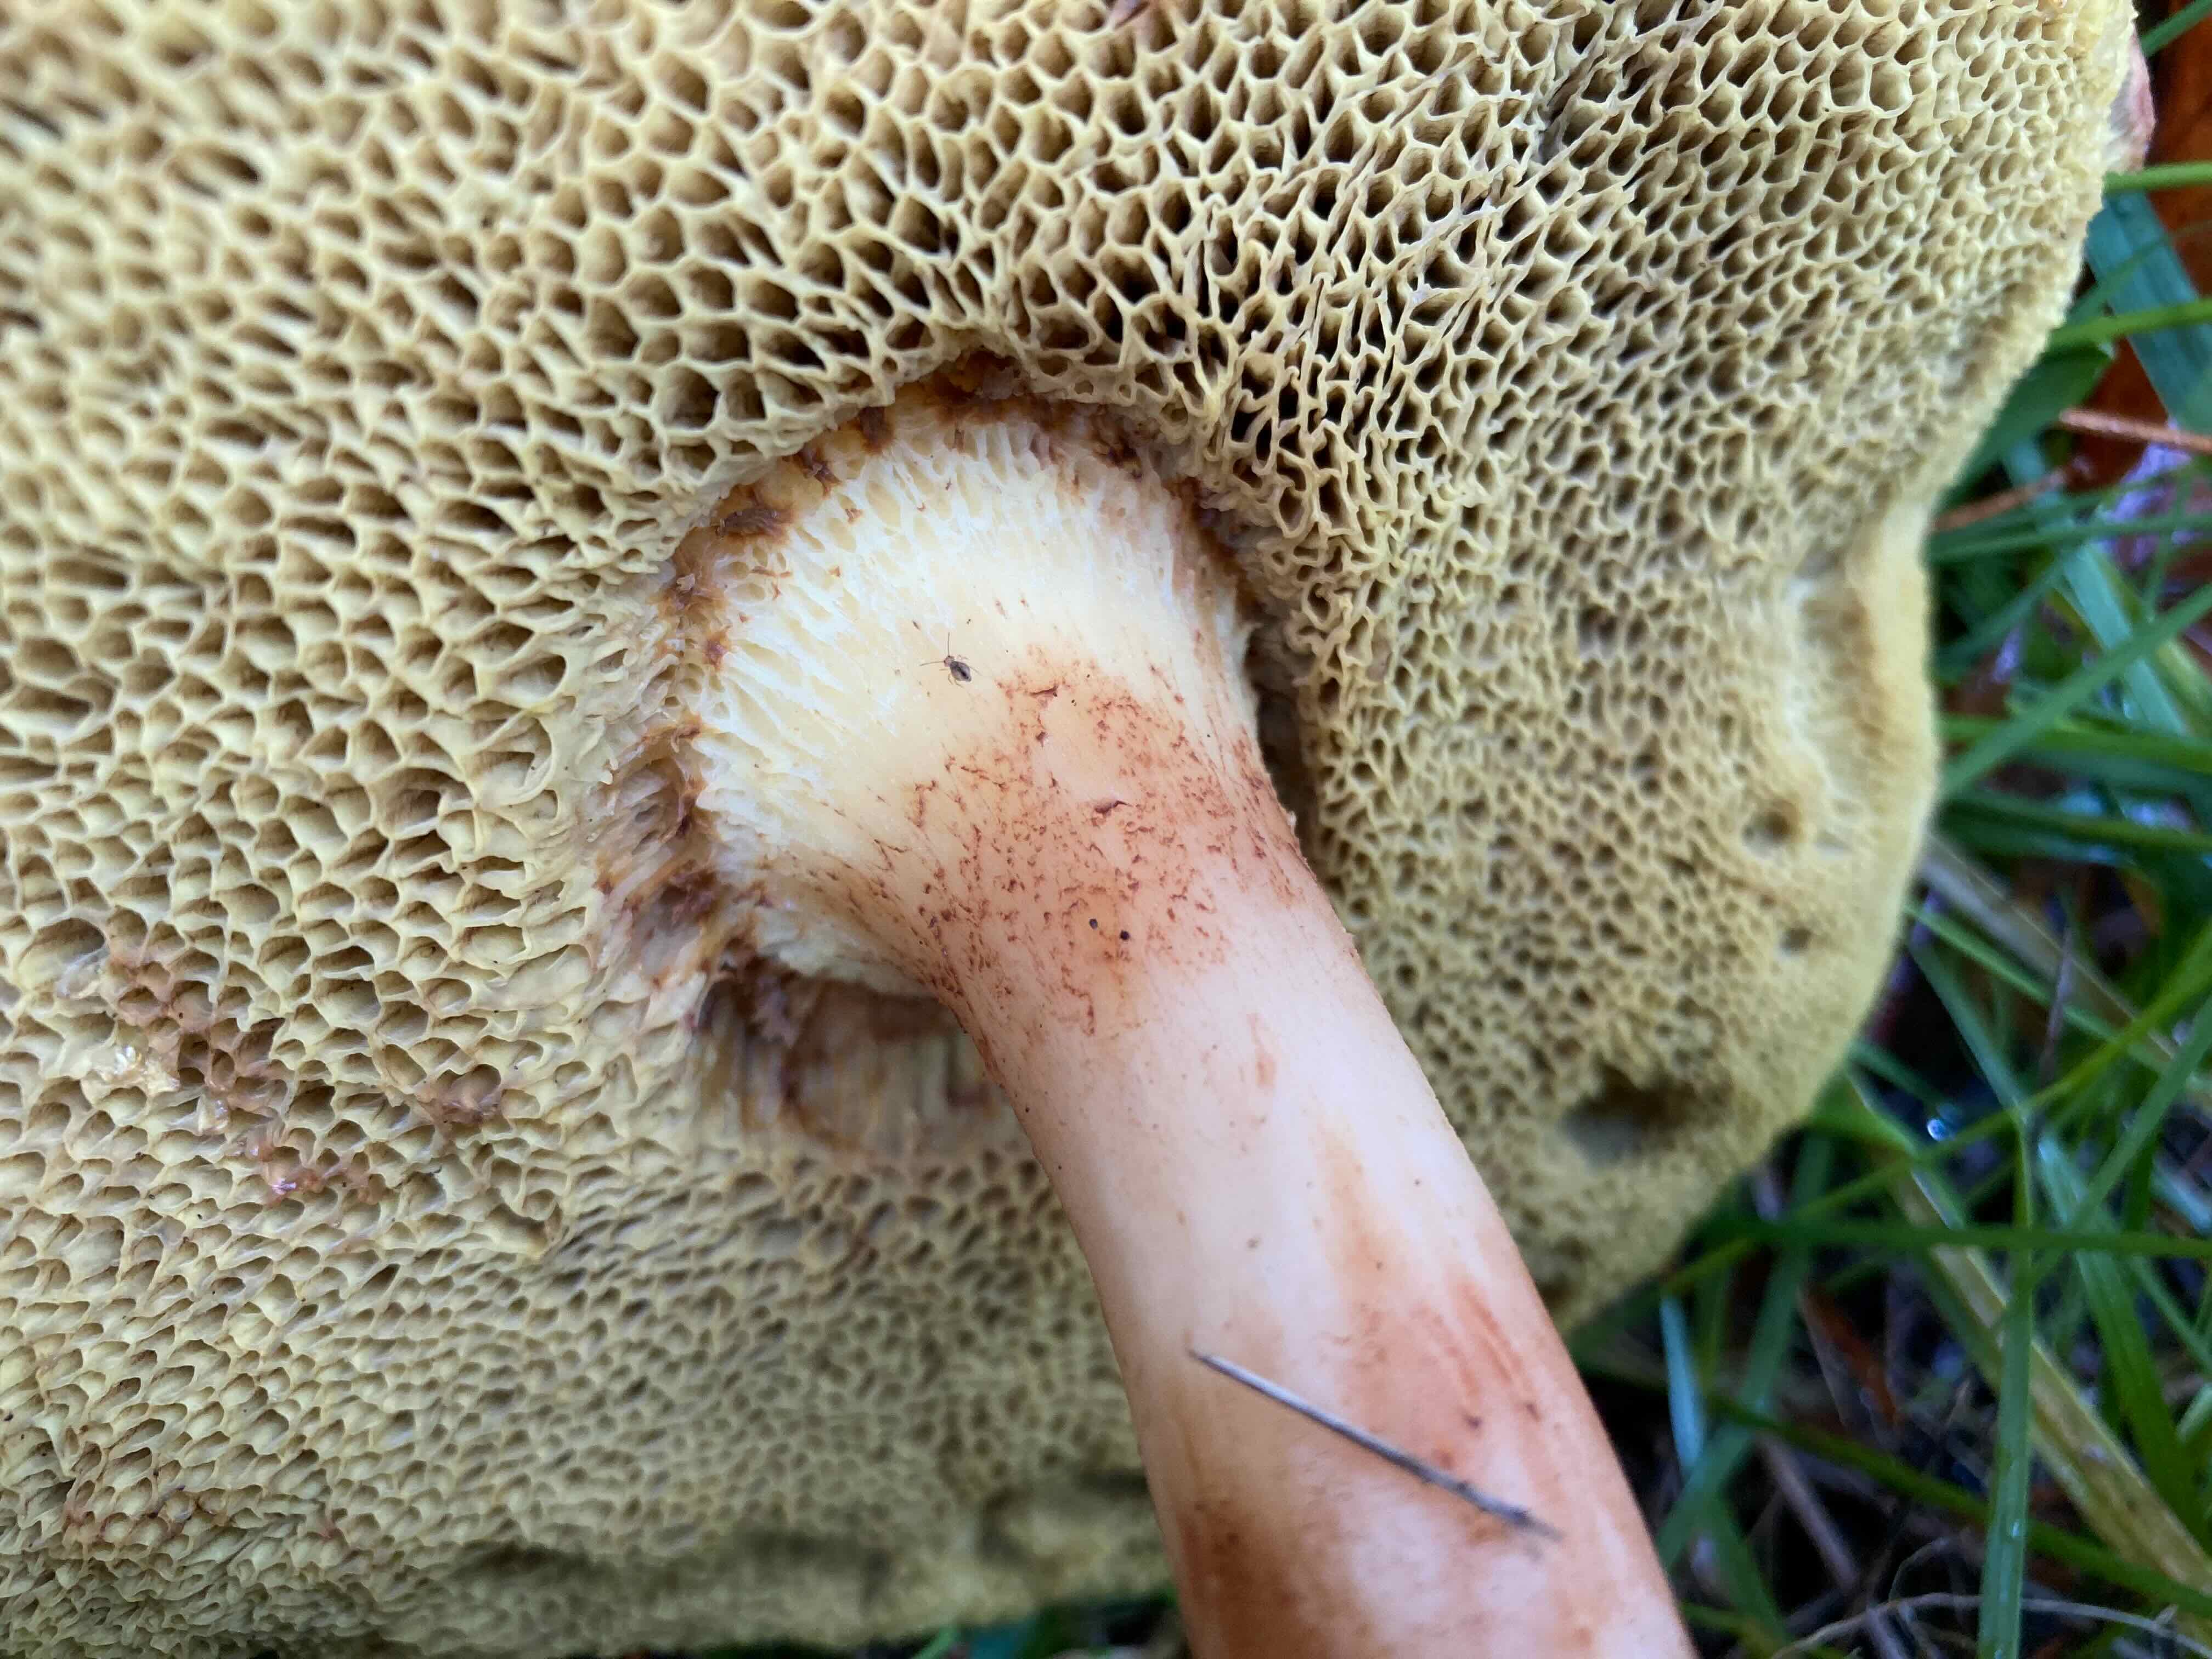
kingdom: Fungi
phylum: Basidiomycota
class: Agaricomycetes
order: Boletales
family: Boletaceae
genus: Xerocomus
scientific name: Xerocomus ferrugineus
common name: vaskeskinds-rørhat
